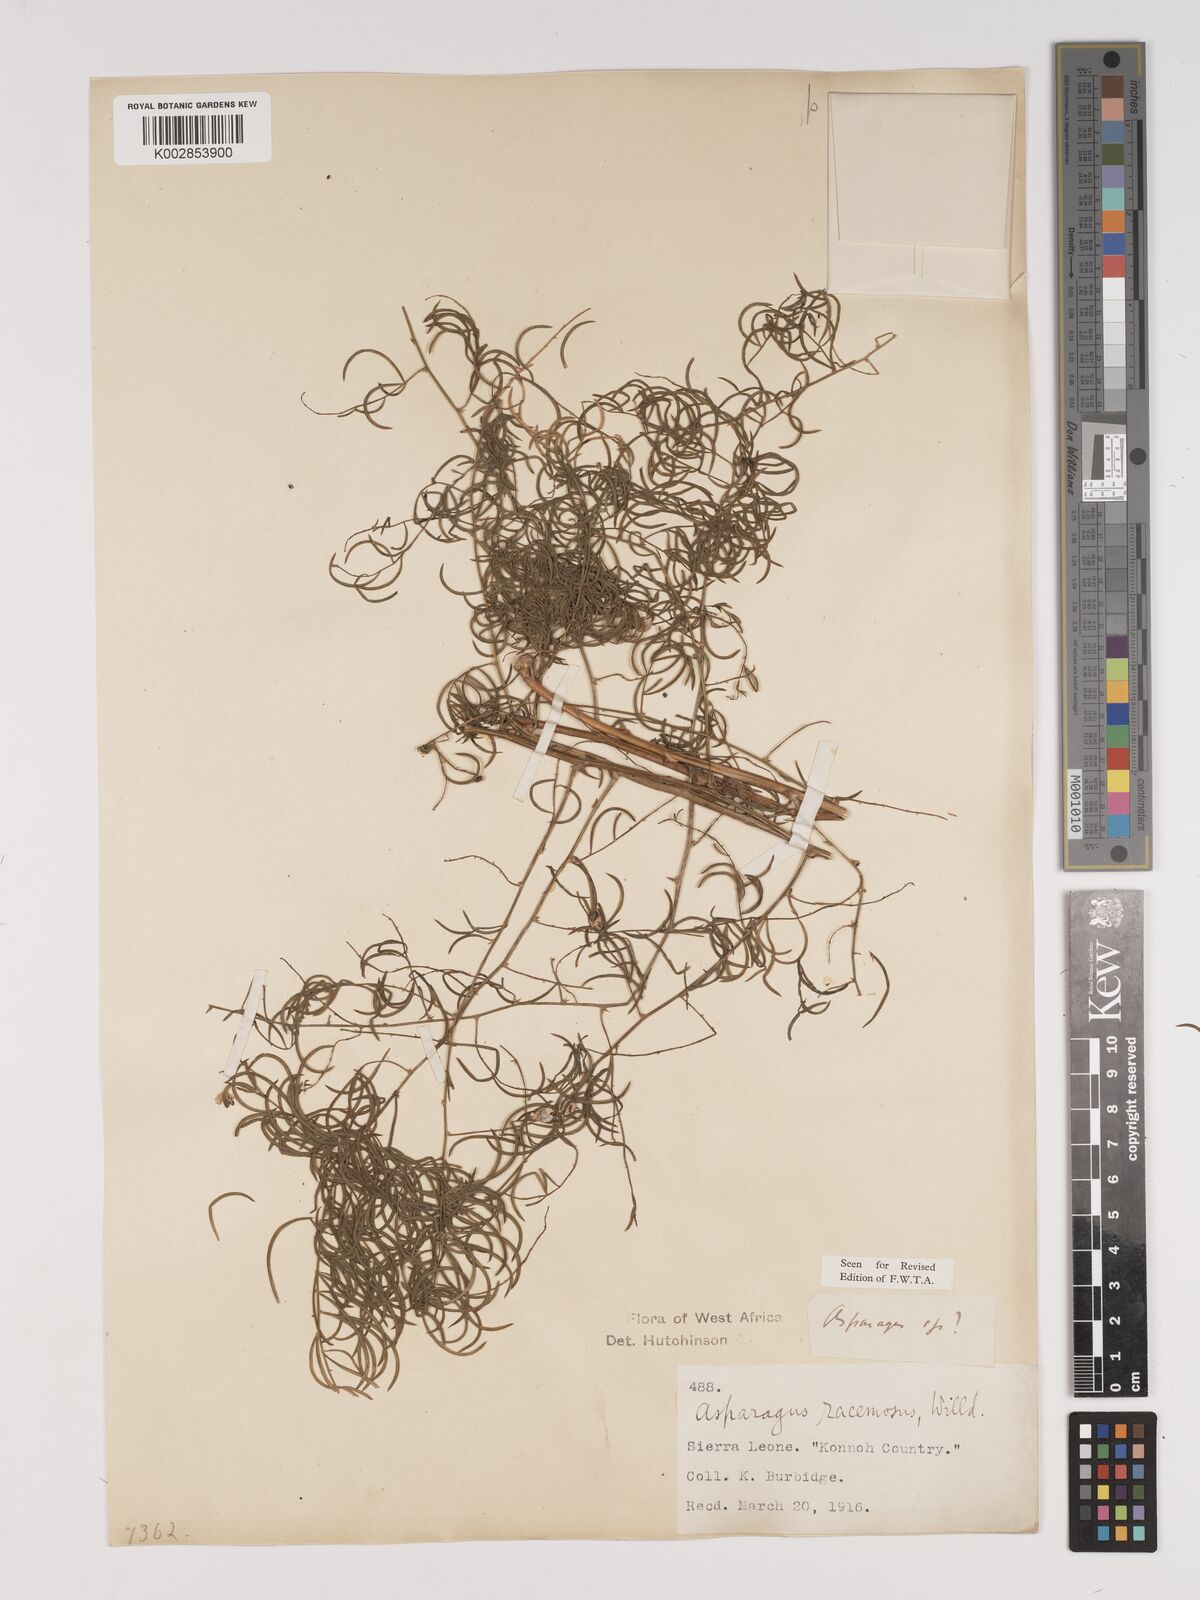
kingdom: Plantae
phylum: Tracheophyta
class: Liliopsida
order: Asparagales
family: Asparagaceae
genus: Asparagus
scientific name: Asparagus racemosus
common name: Asparagus-fern
